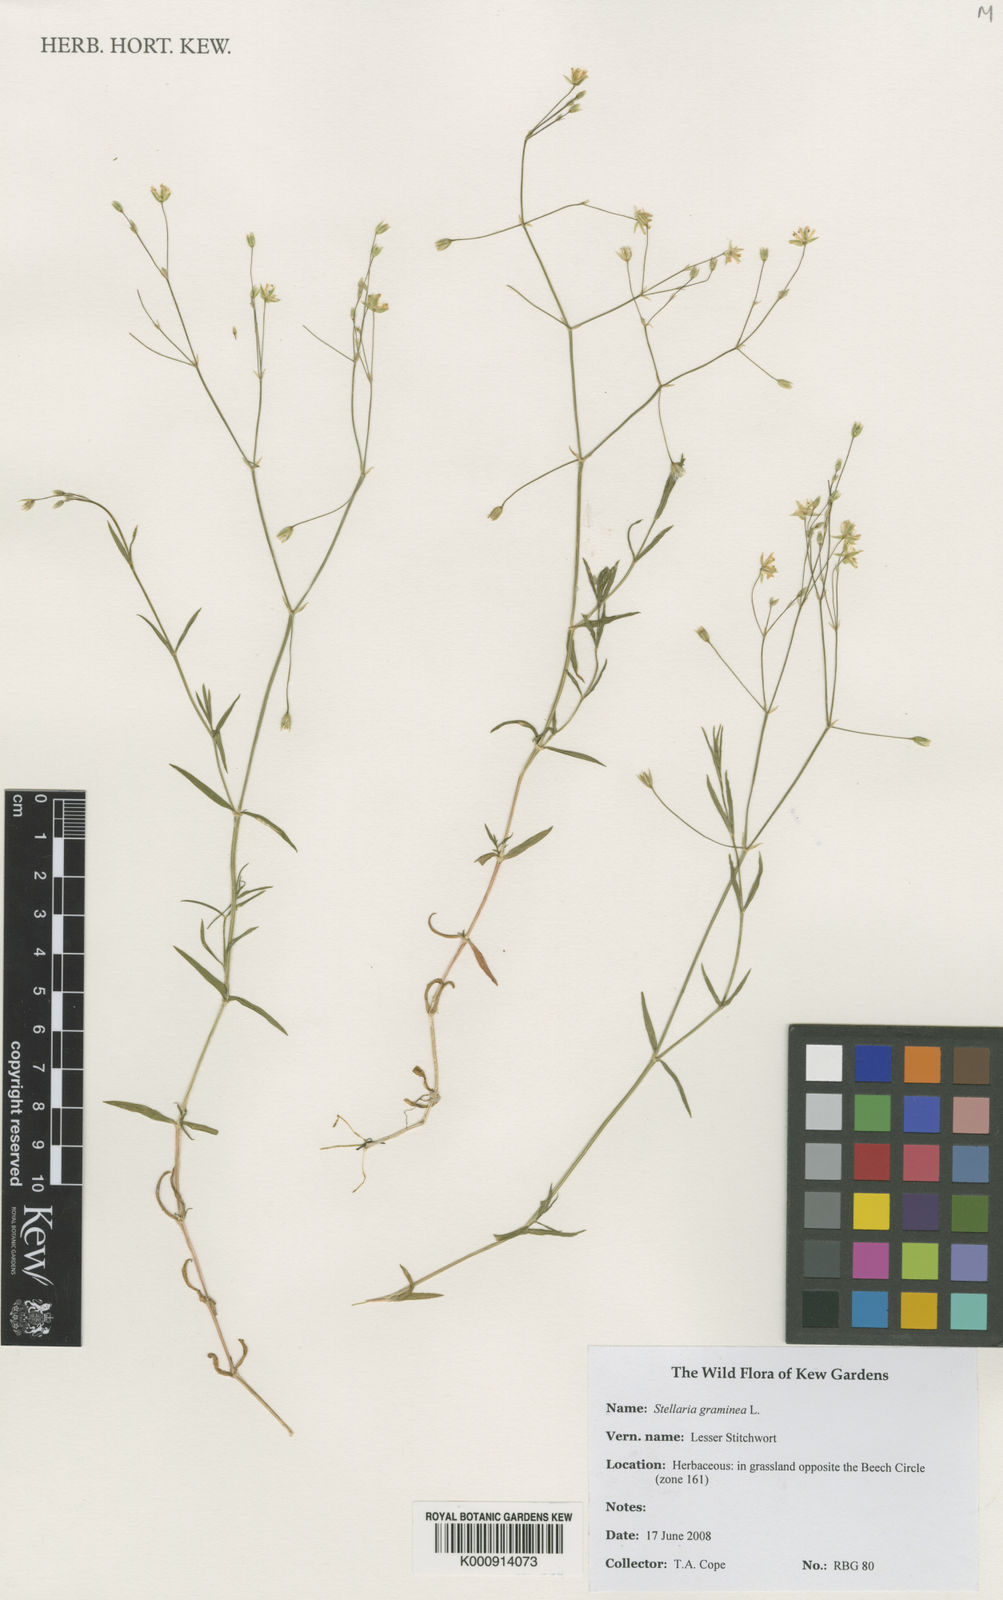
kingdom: Plantae
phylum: Tracheophyta
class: Magnoliopsida
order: Caryophyllales
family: Caryophyllaceae
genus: Stellaria
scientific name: Stellaria graminea
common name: Grass-like starwort
